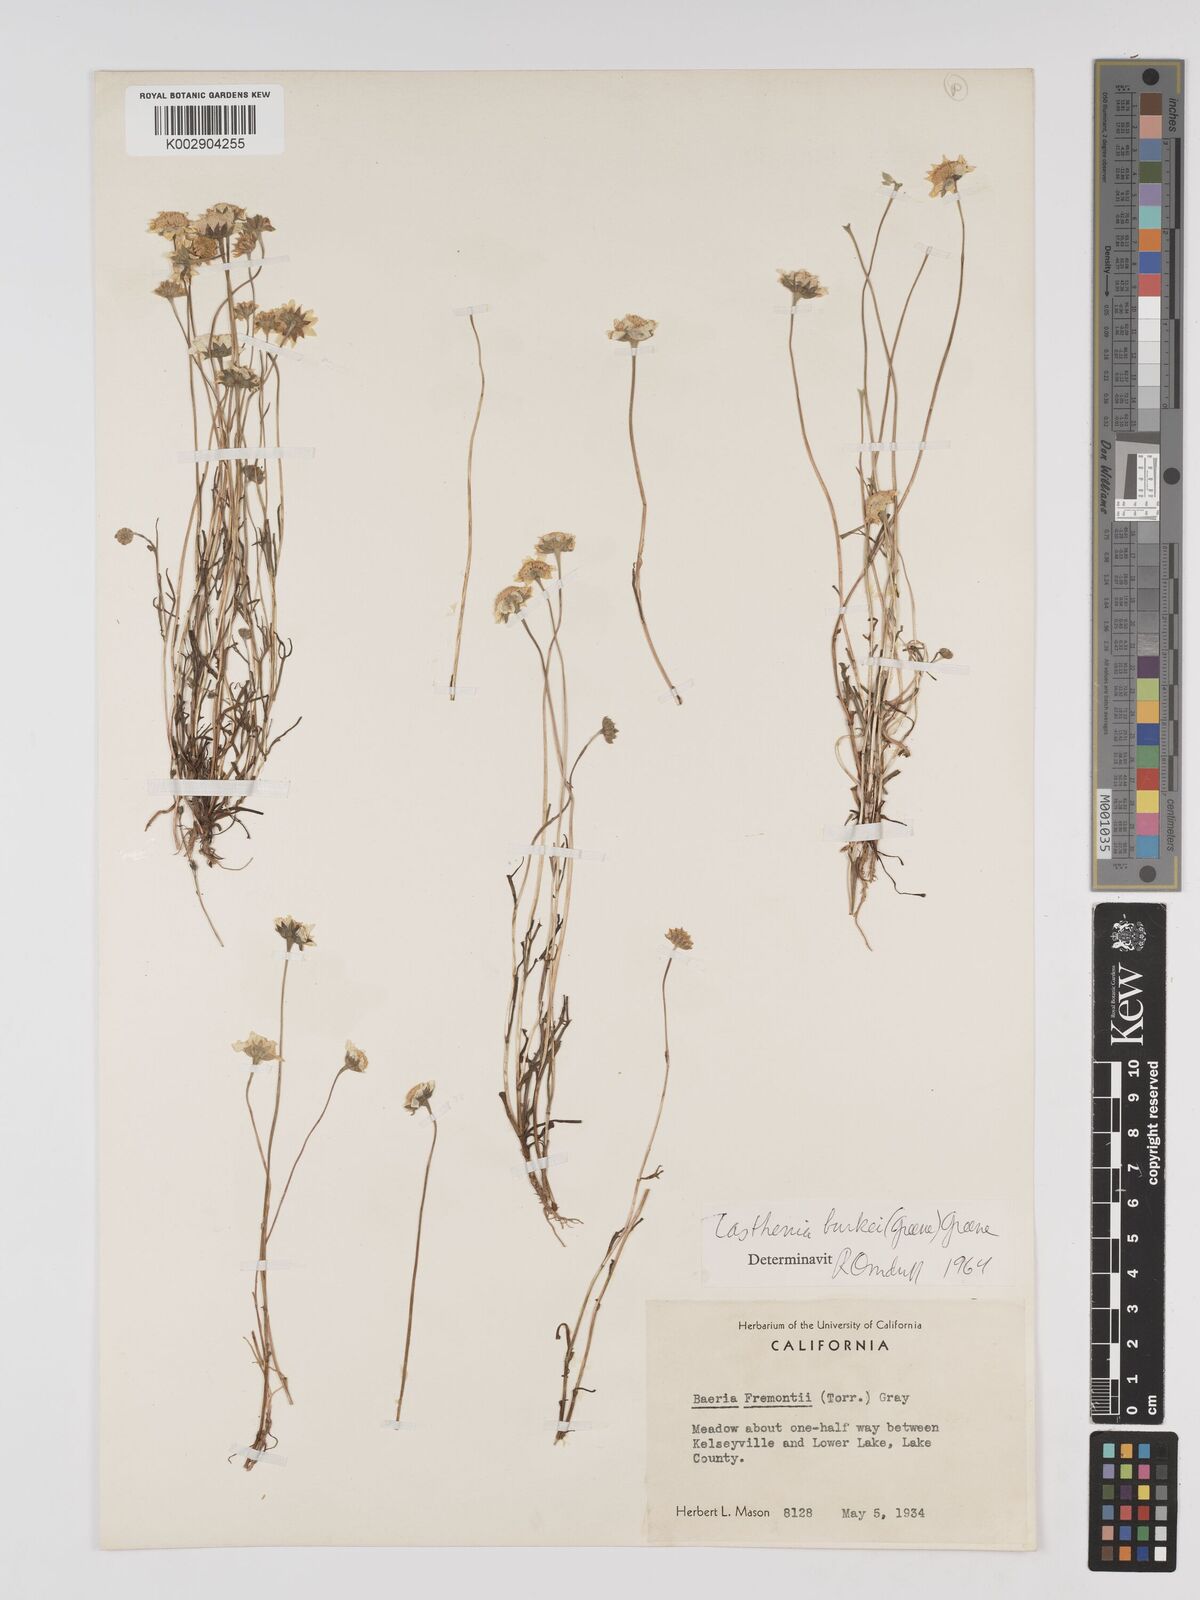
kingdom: Plantae
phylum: Tracheophyta
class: Magnoliopsida
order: Asterales
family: Asteraceae
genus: Lasthenia
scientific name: Lasthenia burkei
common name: Burke's goldfields
